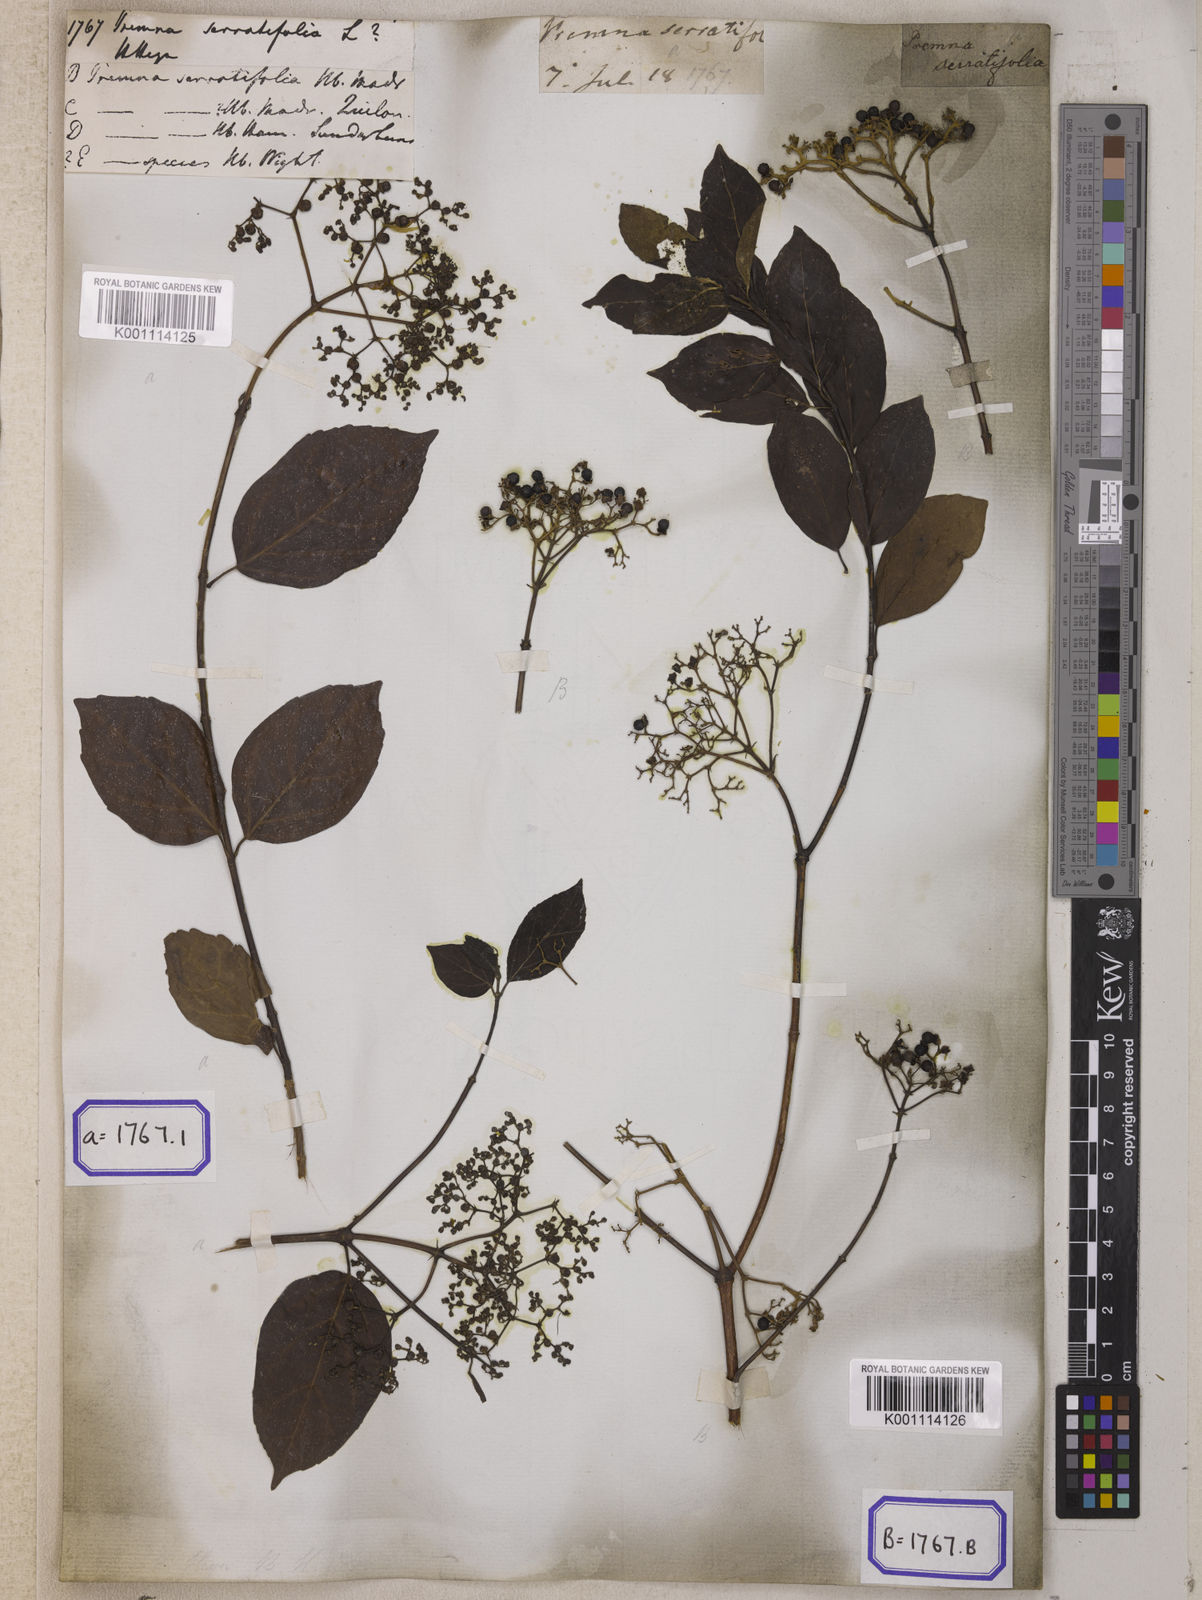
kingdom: Plantae
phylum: Tracheophyta
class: Magnoliopsida
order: Lamiales
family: Lamiaceae
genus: Premna
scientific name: Premna serratifolia
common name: Bastard guelder
